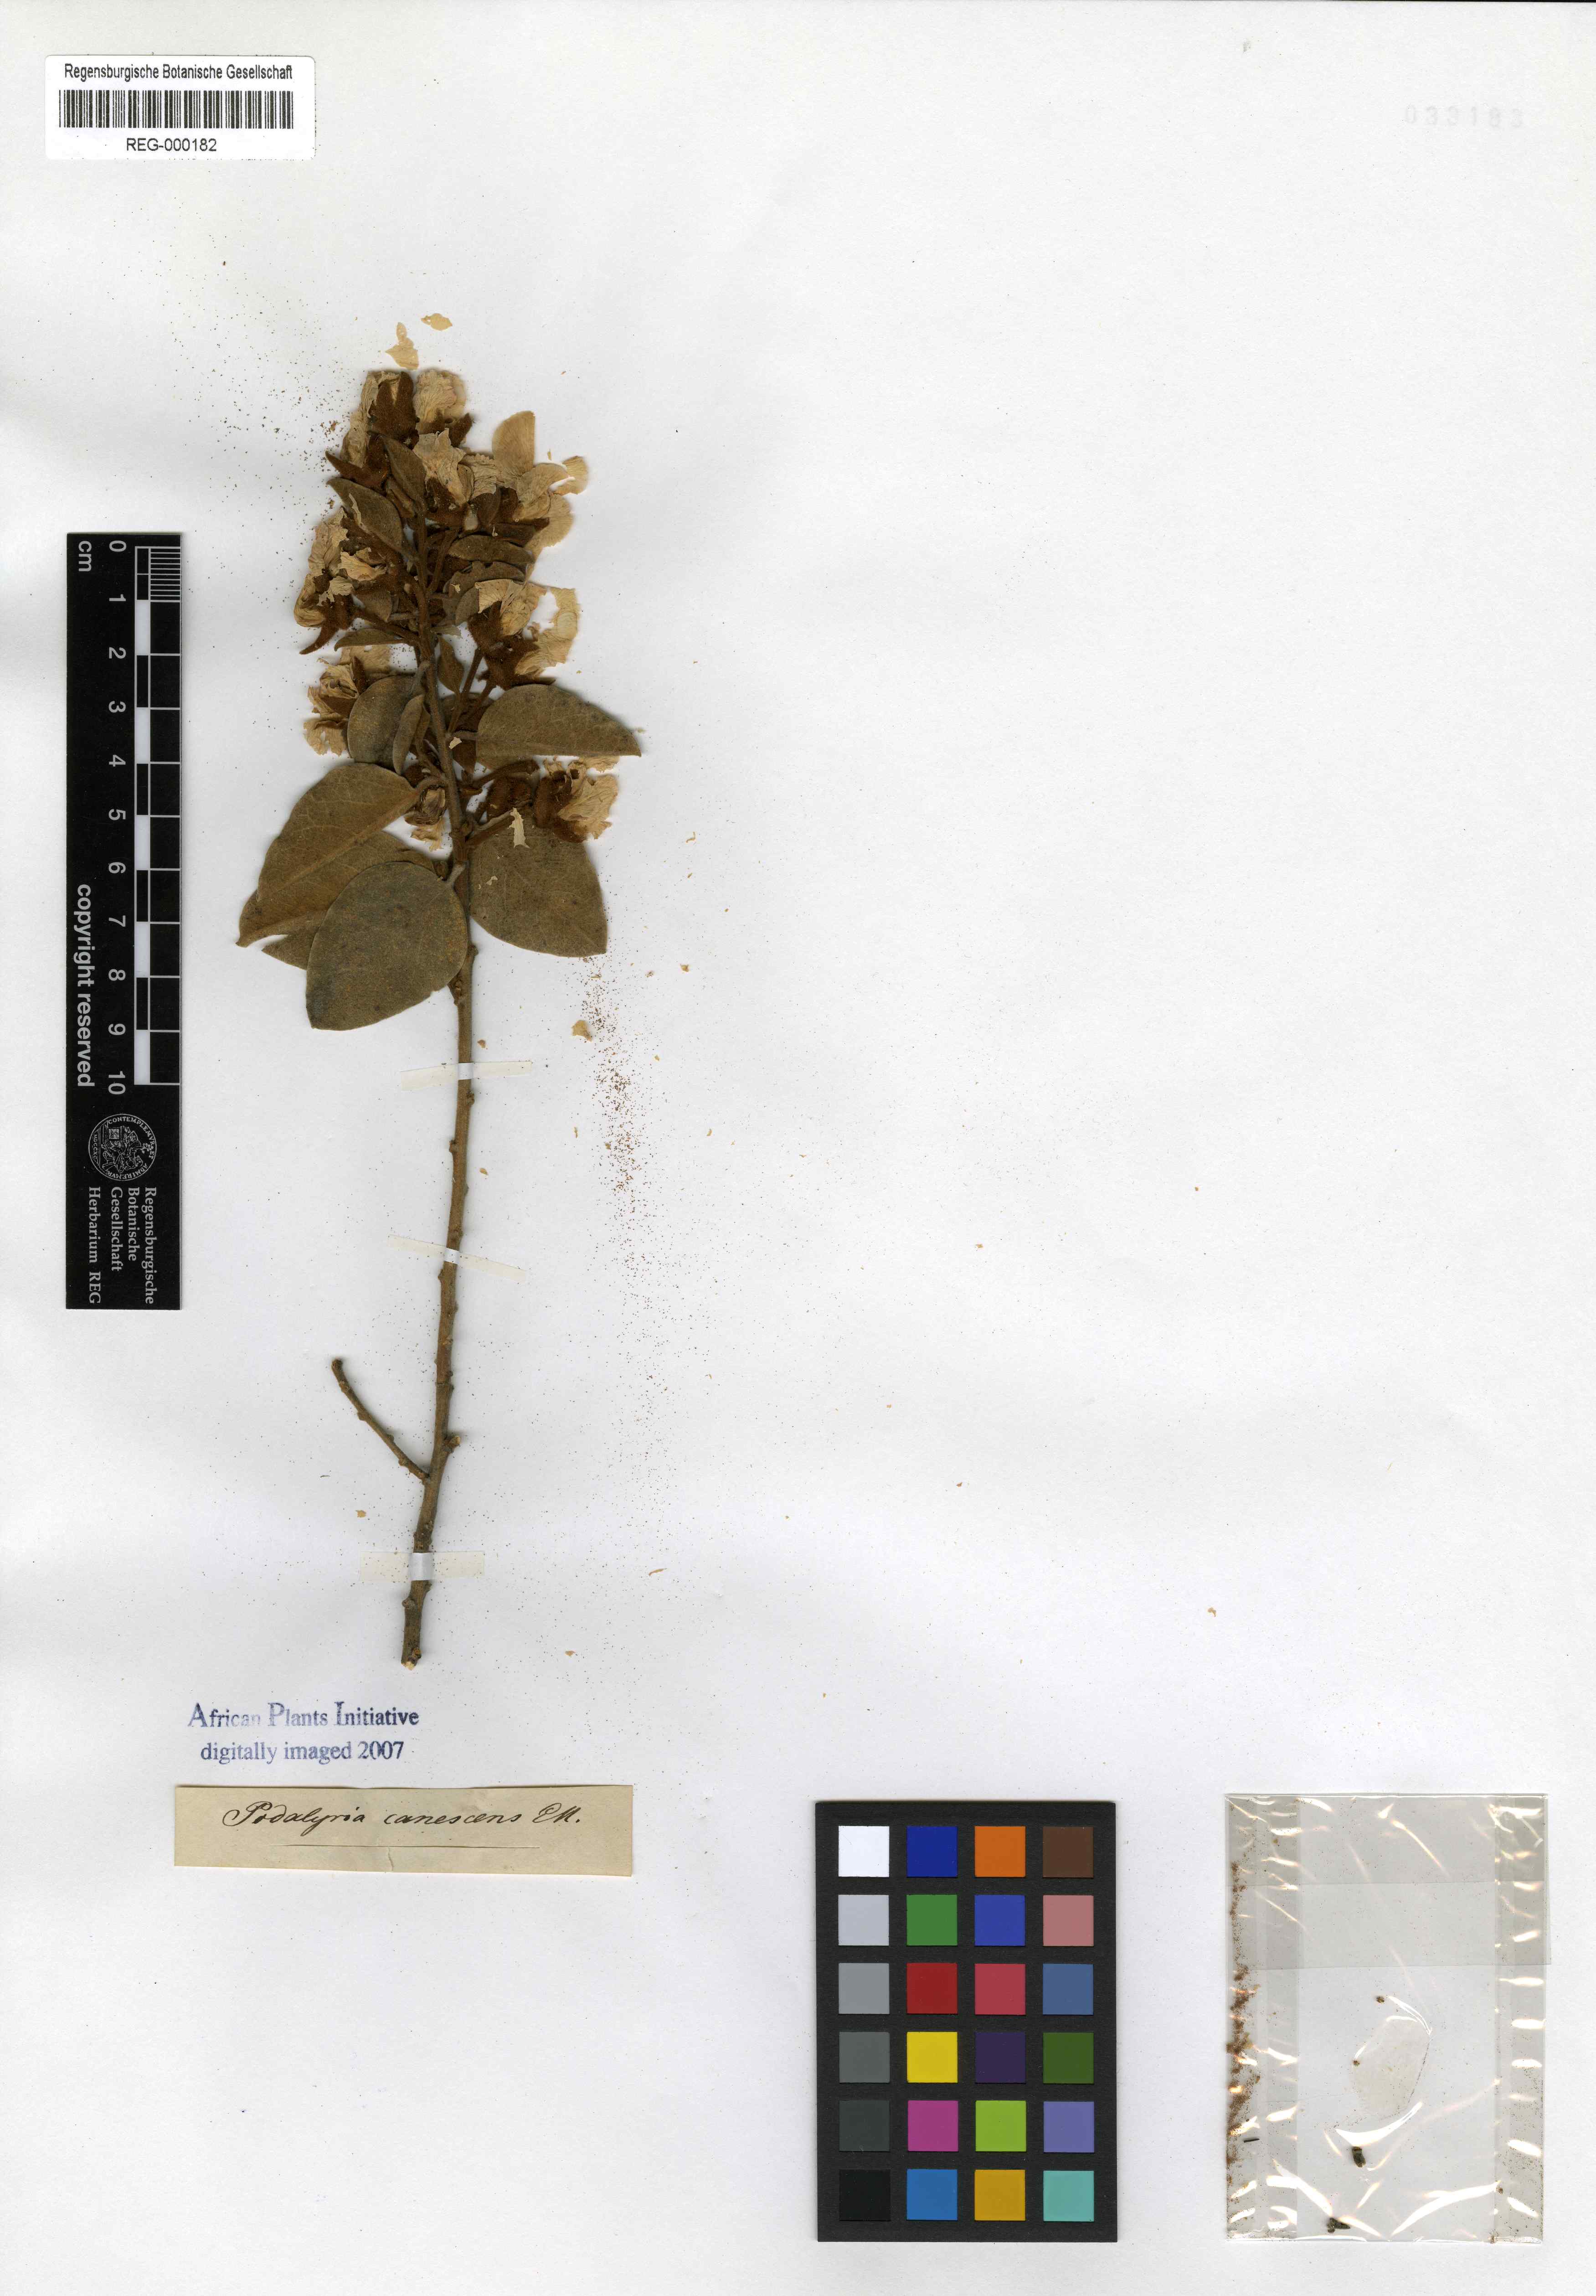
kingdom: Plantae
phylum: Tracheophyta
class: Magnoliopsida
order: Fabales
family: Fabaceae
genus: Podalyria
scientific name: Podalyria amoena
